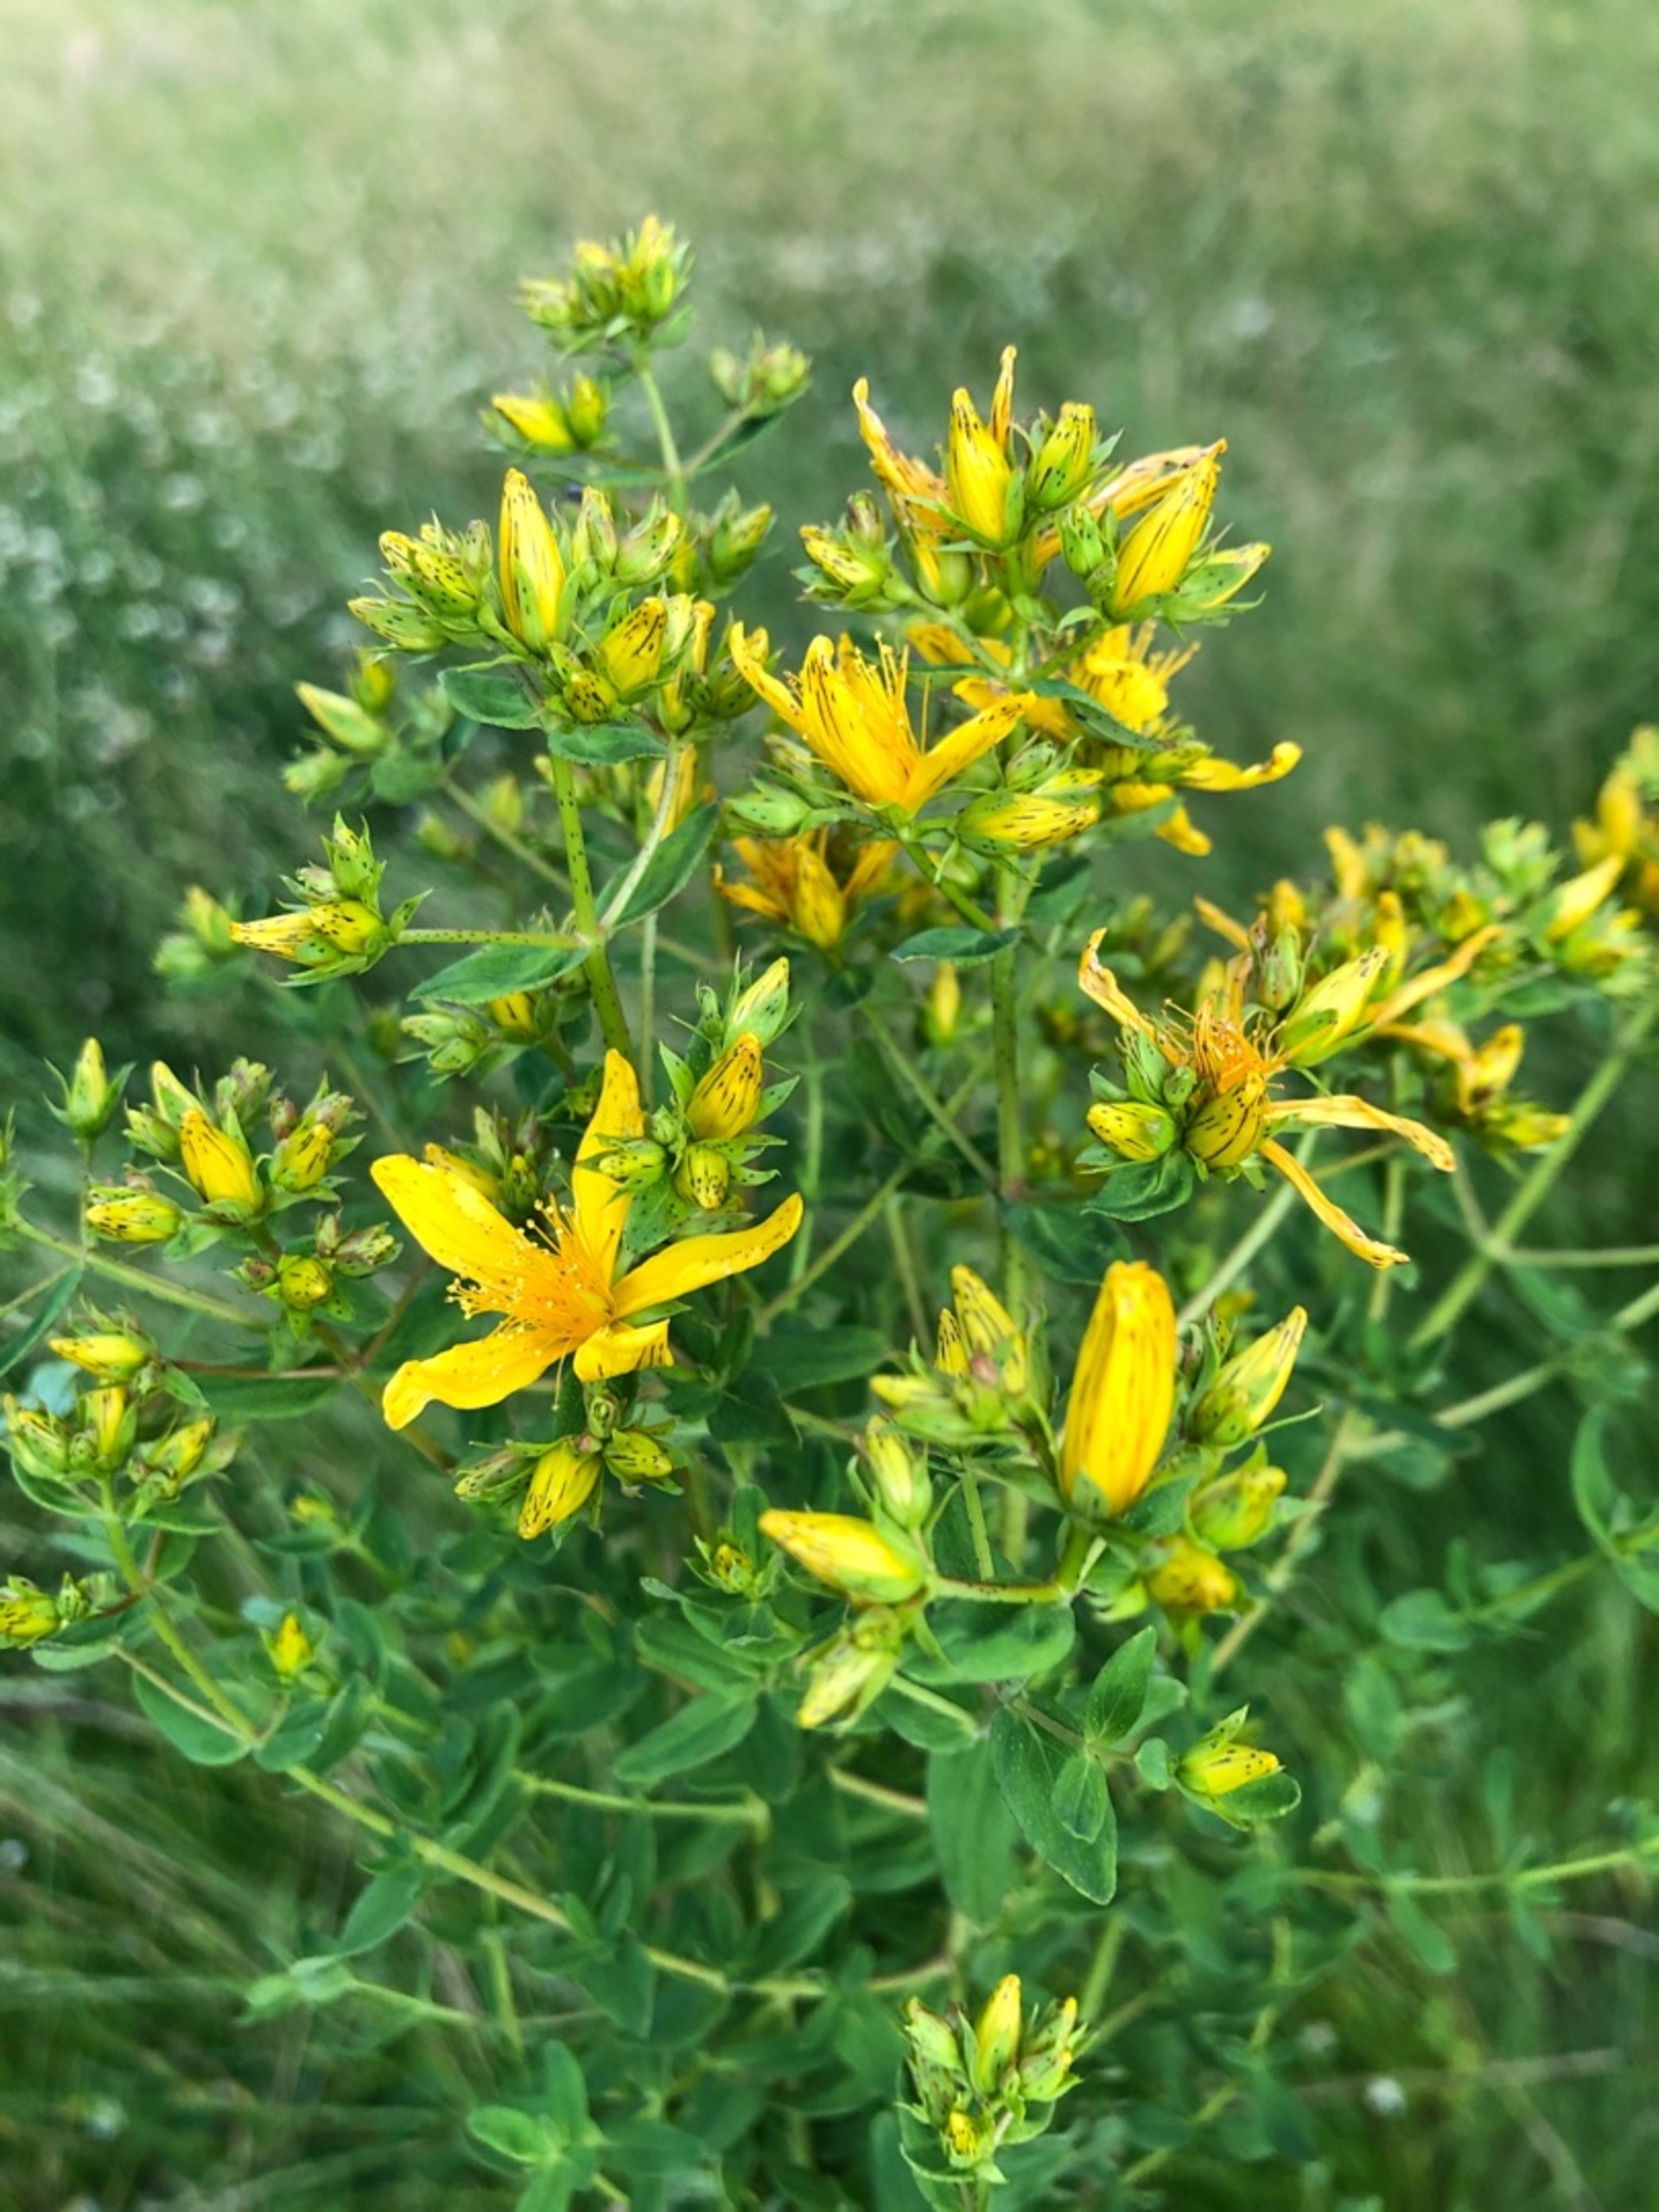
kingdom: Plantae
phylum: Tracheophyta
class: Magnoliopsida
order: Malpighiales
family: Hypericaceae
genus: Hypericum
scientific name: Hypericum perforatum
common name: Prikbladet perikon
